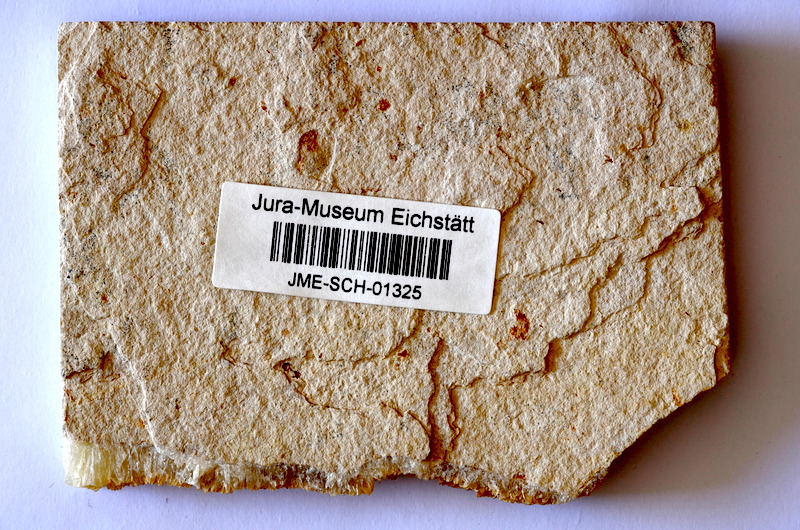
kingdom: Animalia
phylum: Chordata
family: Ascalaboidae
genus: Tharsis
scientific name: Tharsis dubius
